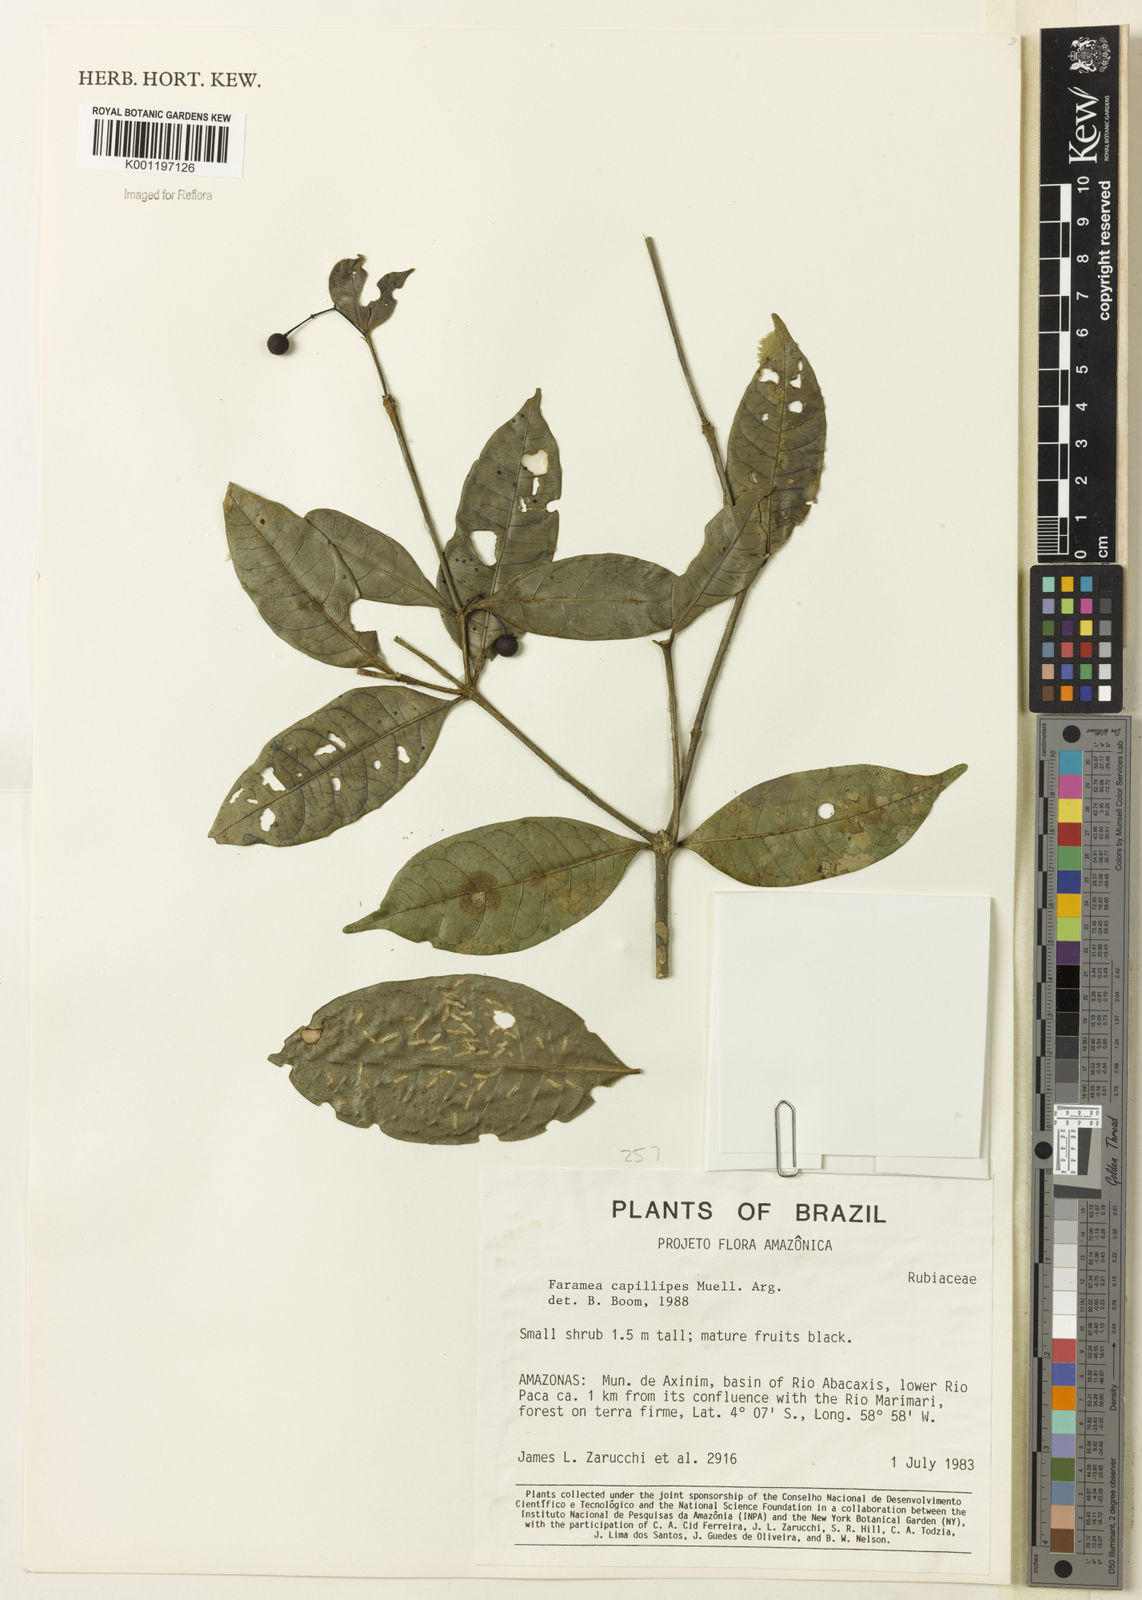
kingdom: Plantae
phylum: Tracheophyta
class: Magnoliopsida
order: Gentianales
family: Rubiaceae
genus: Faramea
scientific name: Faramea
